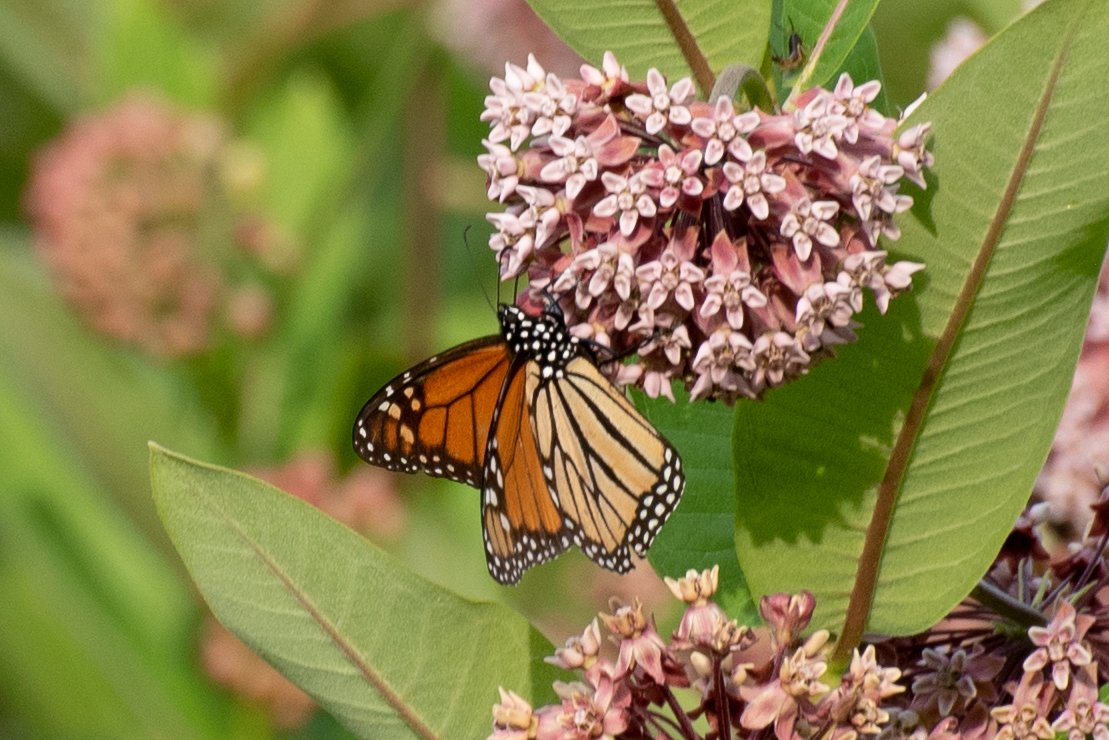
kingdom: Animalia
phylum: Arthropoda
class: Insecta
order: Lepidoptera
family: Nymphalidae
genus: Danaus
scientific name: Danaus plexippus
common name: Monarch
